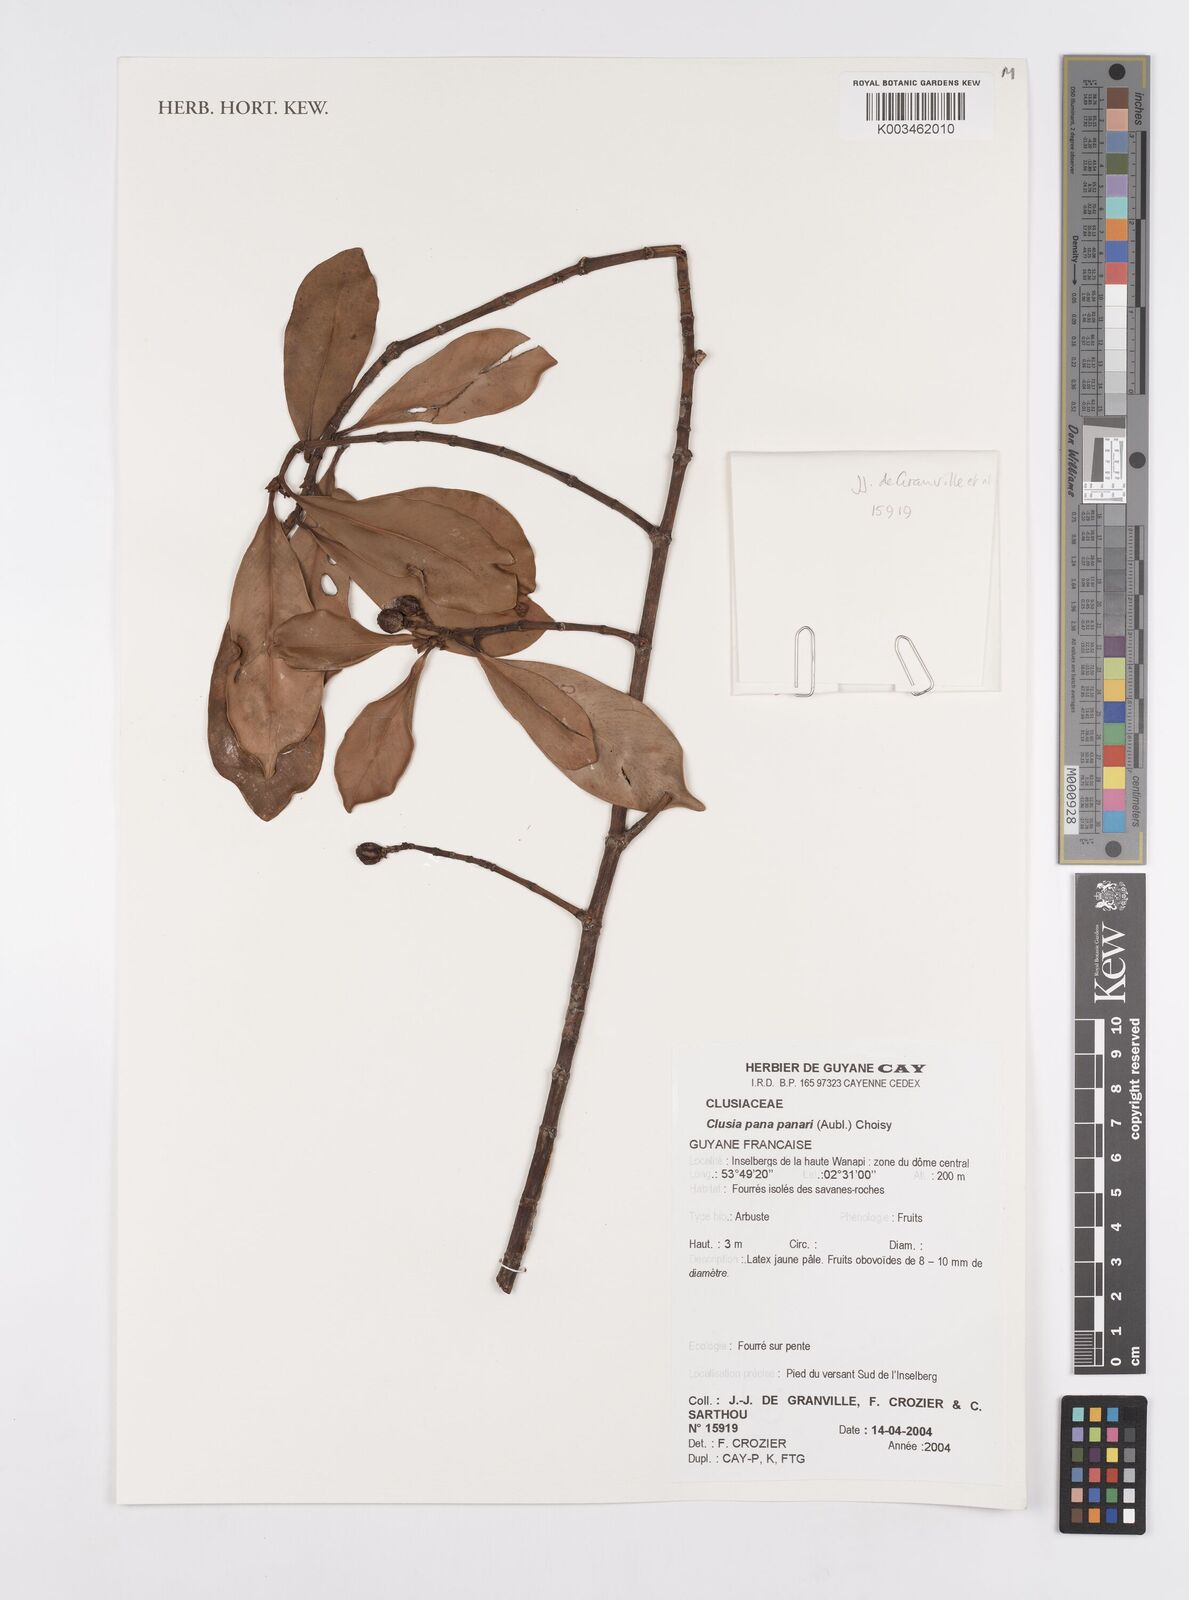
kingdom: Plantae
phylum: Tracheophyta
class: Magnoliopsida
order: Malpighiales
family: Clusiaceae
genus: Clusia
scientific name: Clusia panapanari
